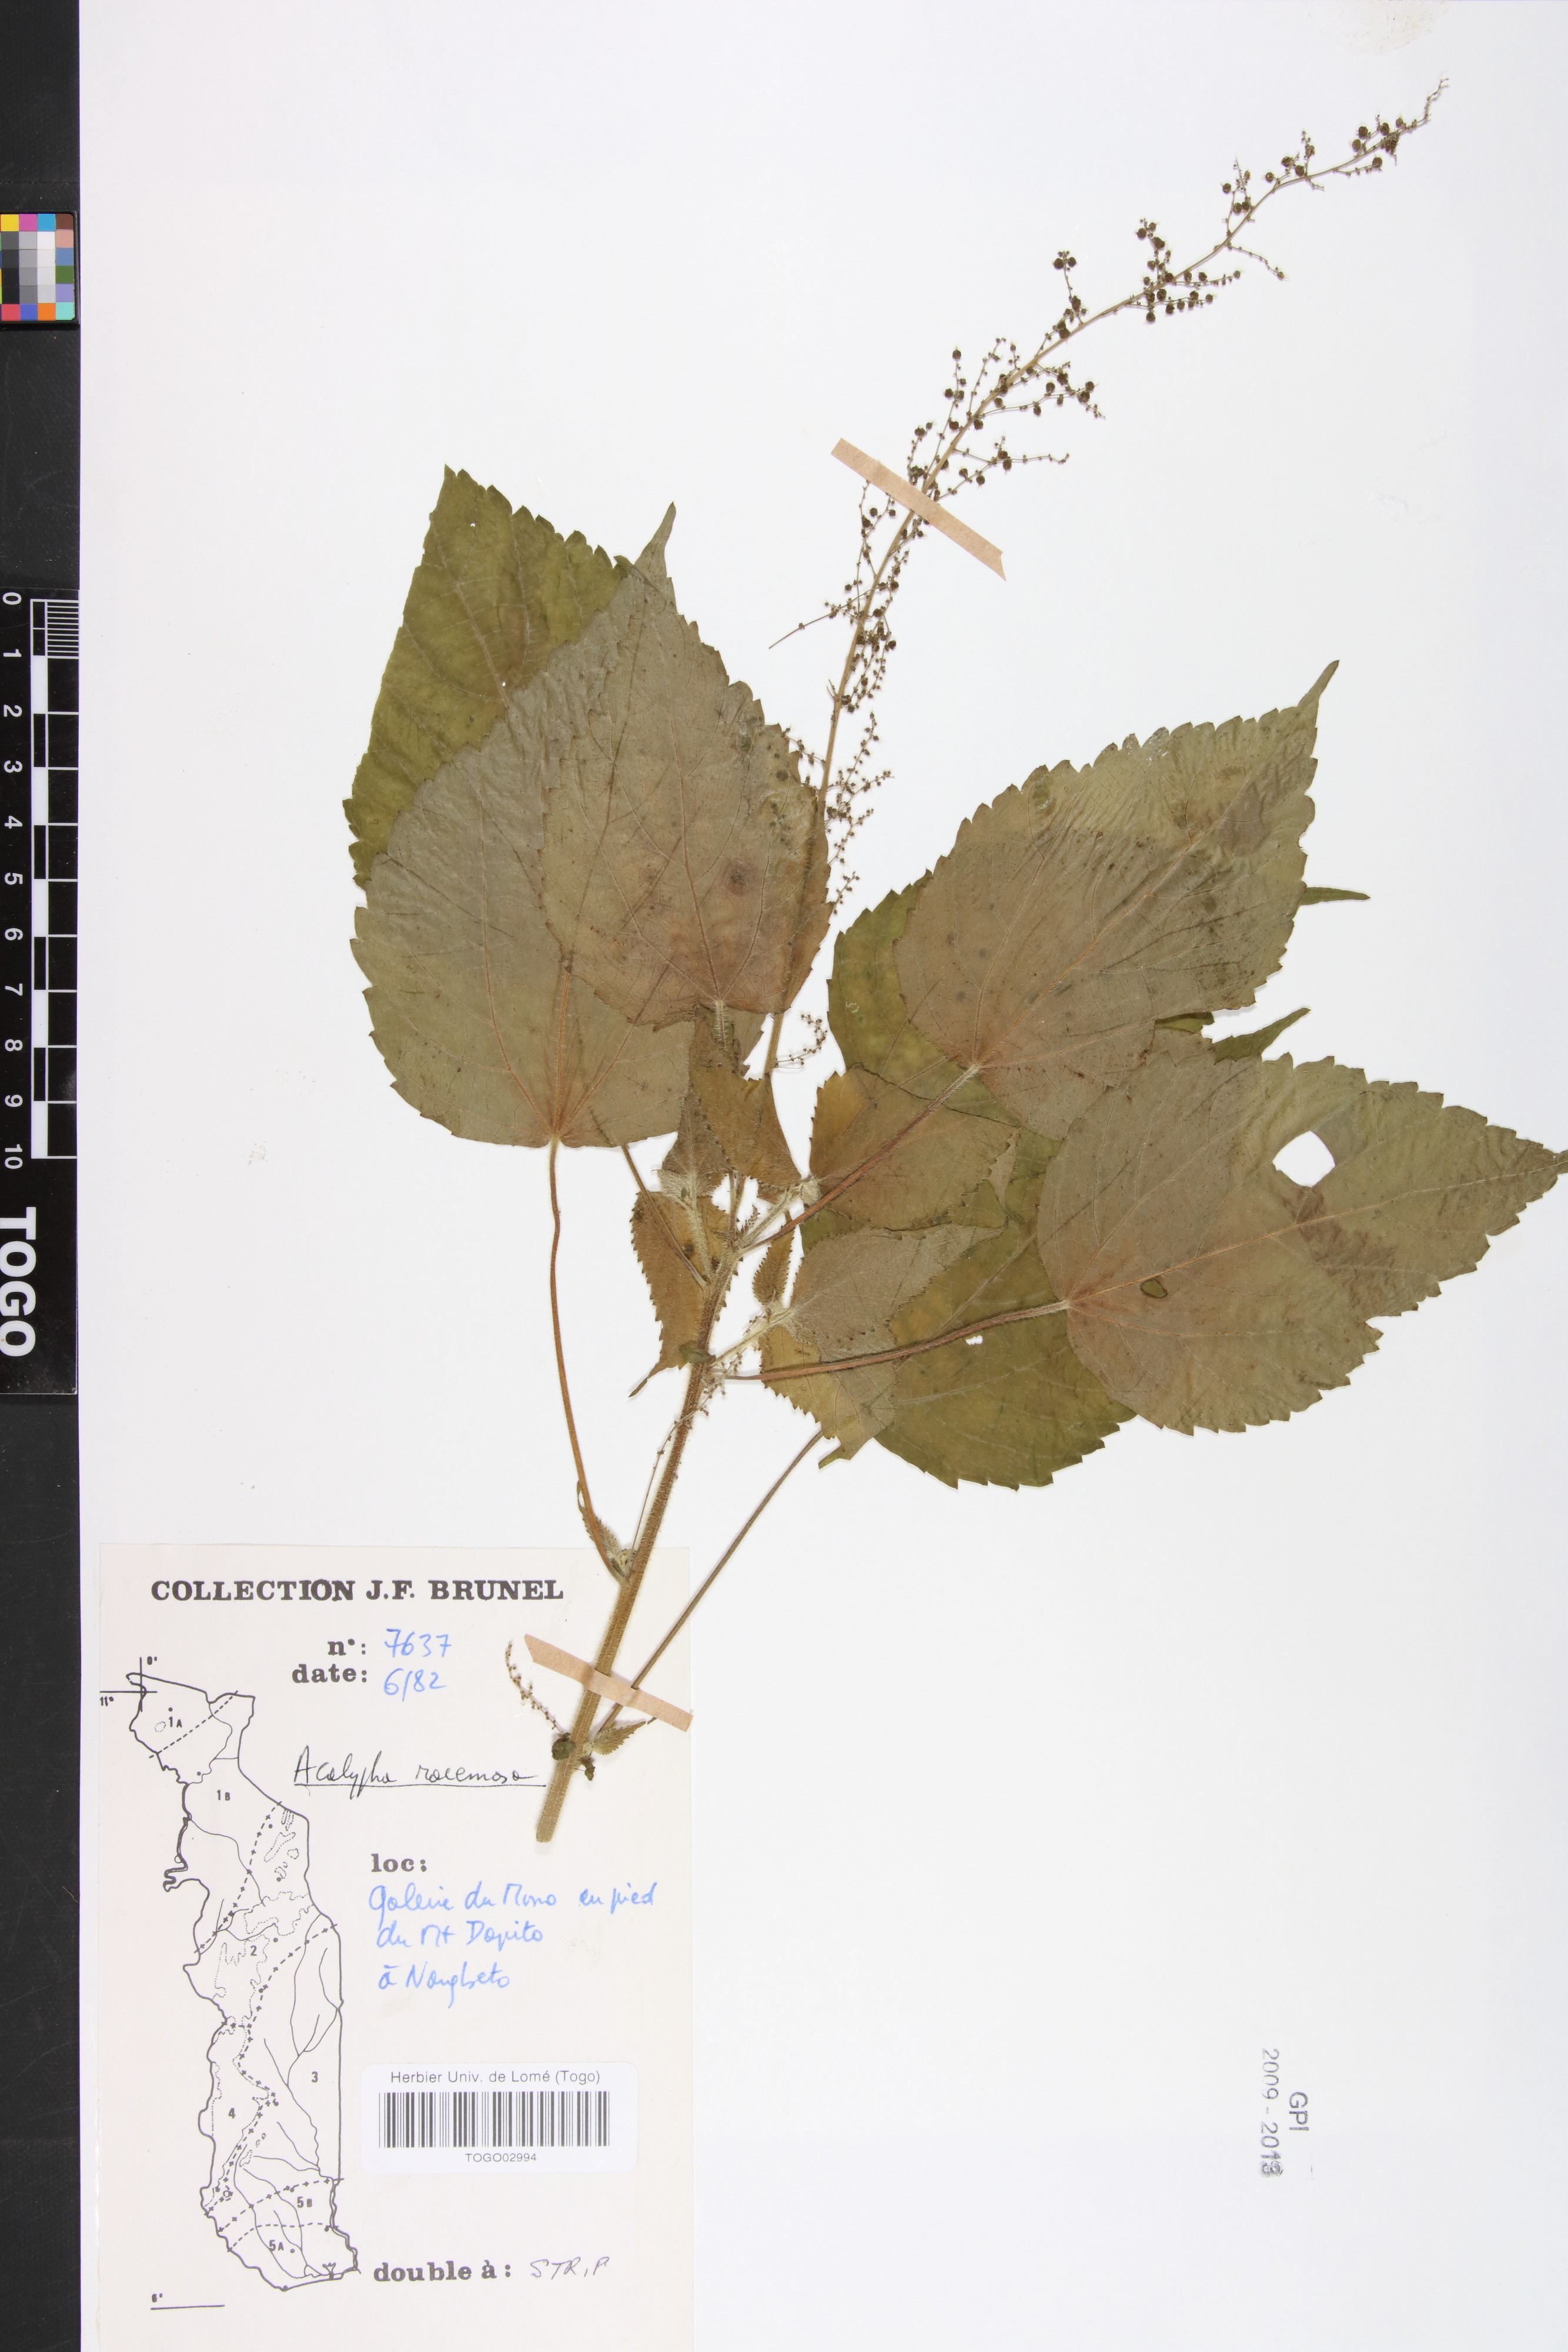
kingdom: Plantae
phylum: Tracheophyta
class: Magnoliopsida
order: Malpighiales
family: Euphorbiaceae
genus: Acalypha
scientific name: Acalypha paniculata
